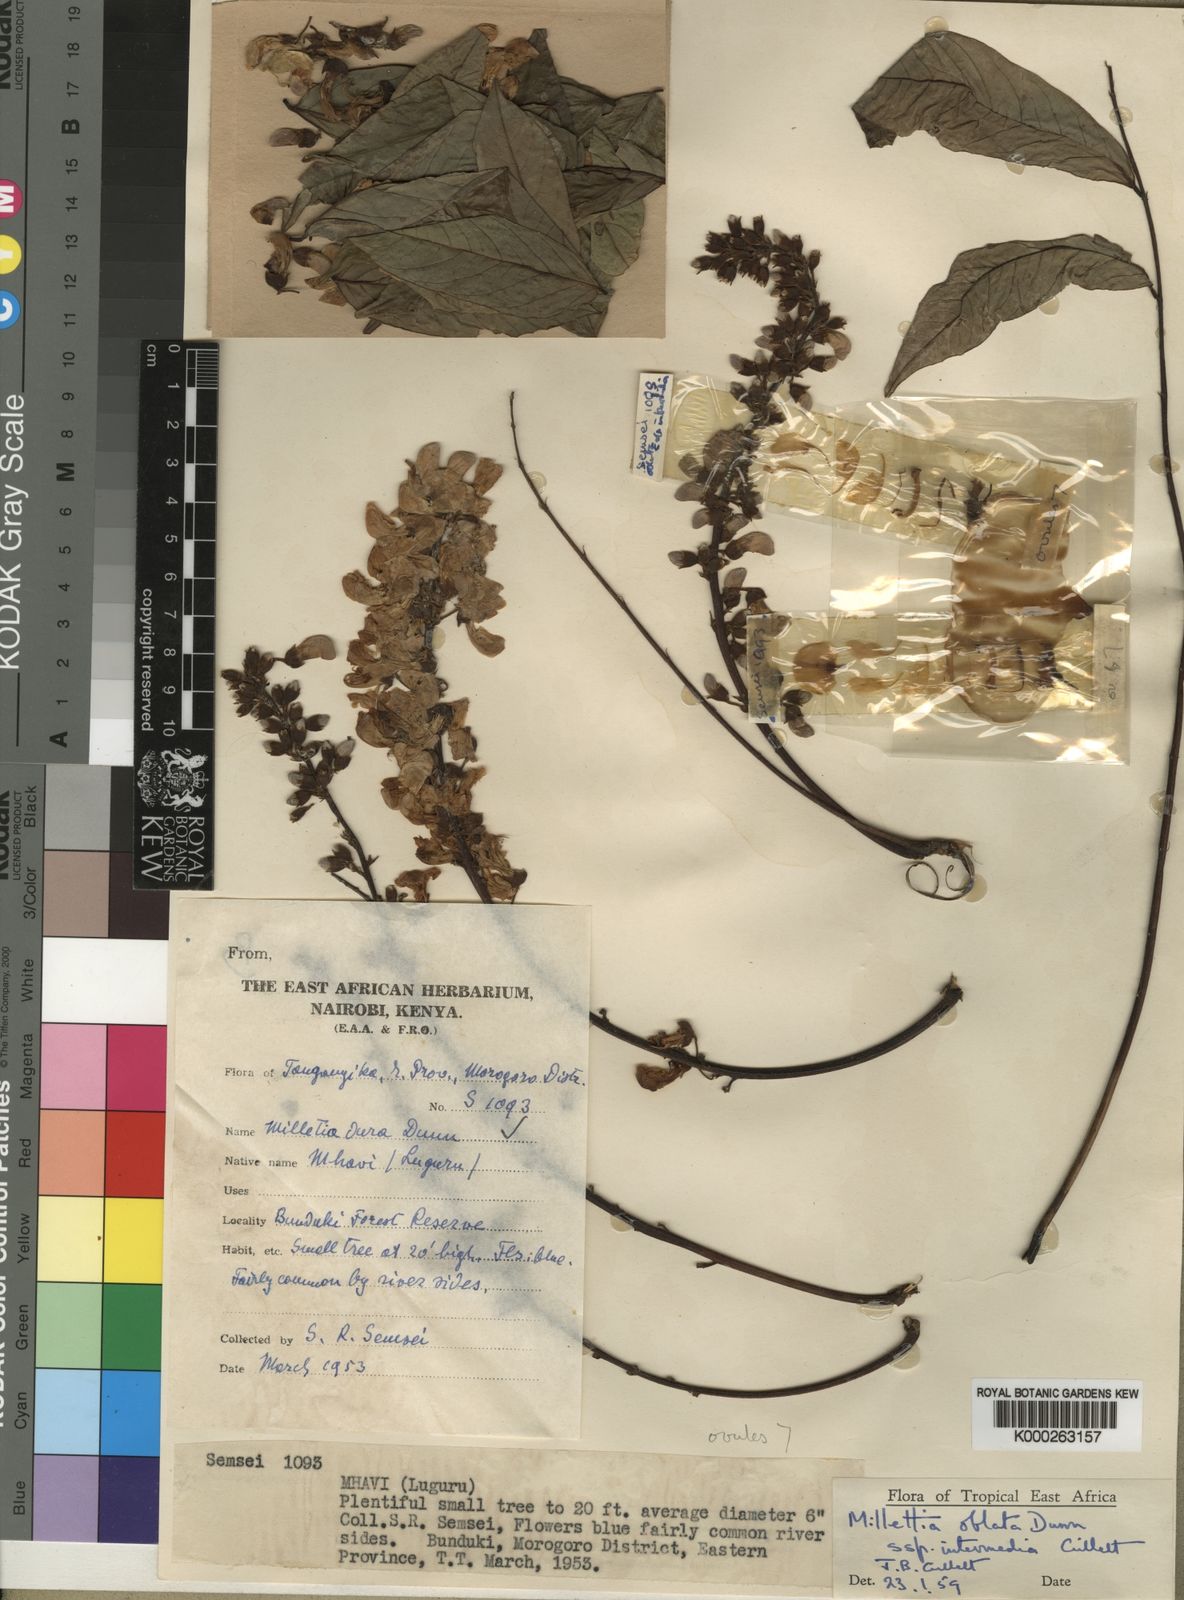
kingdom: Plantae
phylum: Tracheophyta
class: Magnoliopsida
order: Fabales
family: Fabaceae
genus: Millettia
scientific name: Millettia oblata
